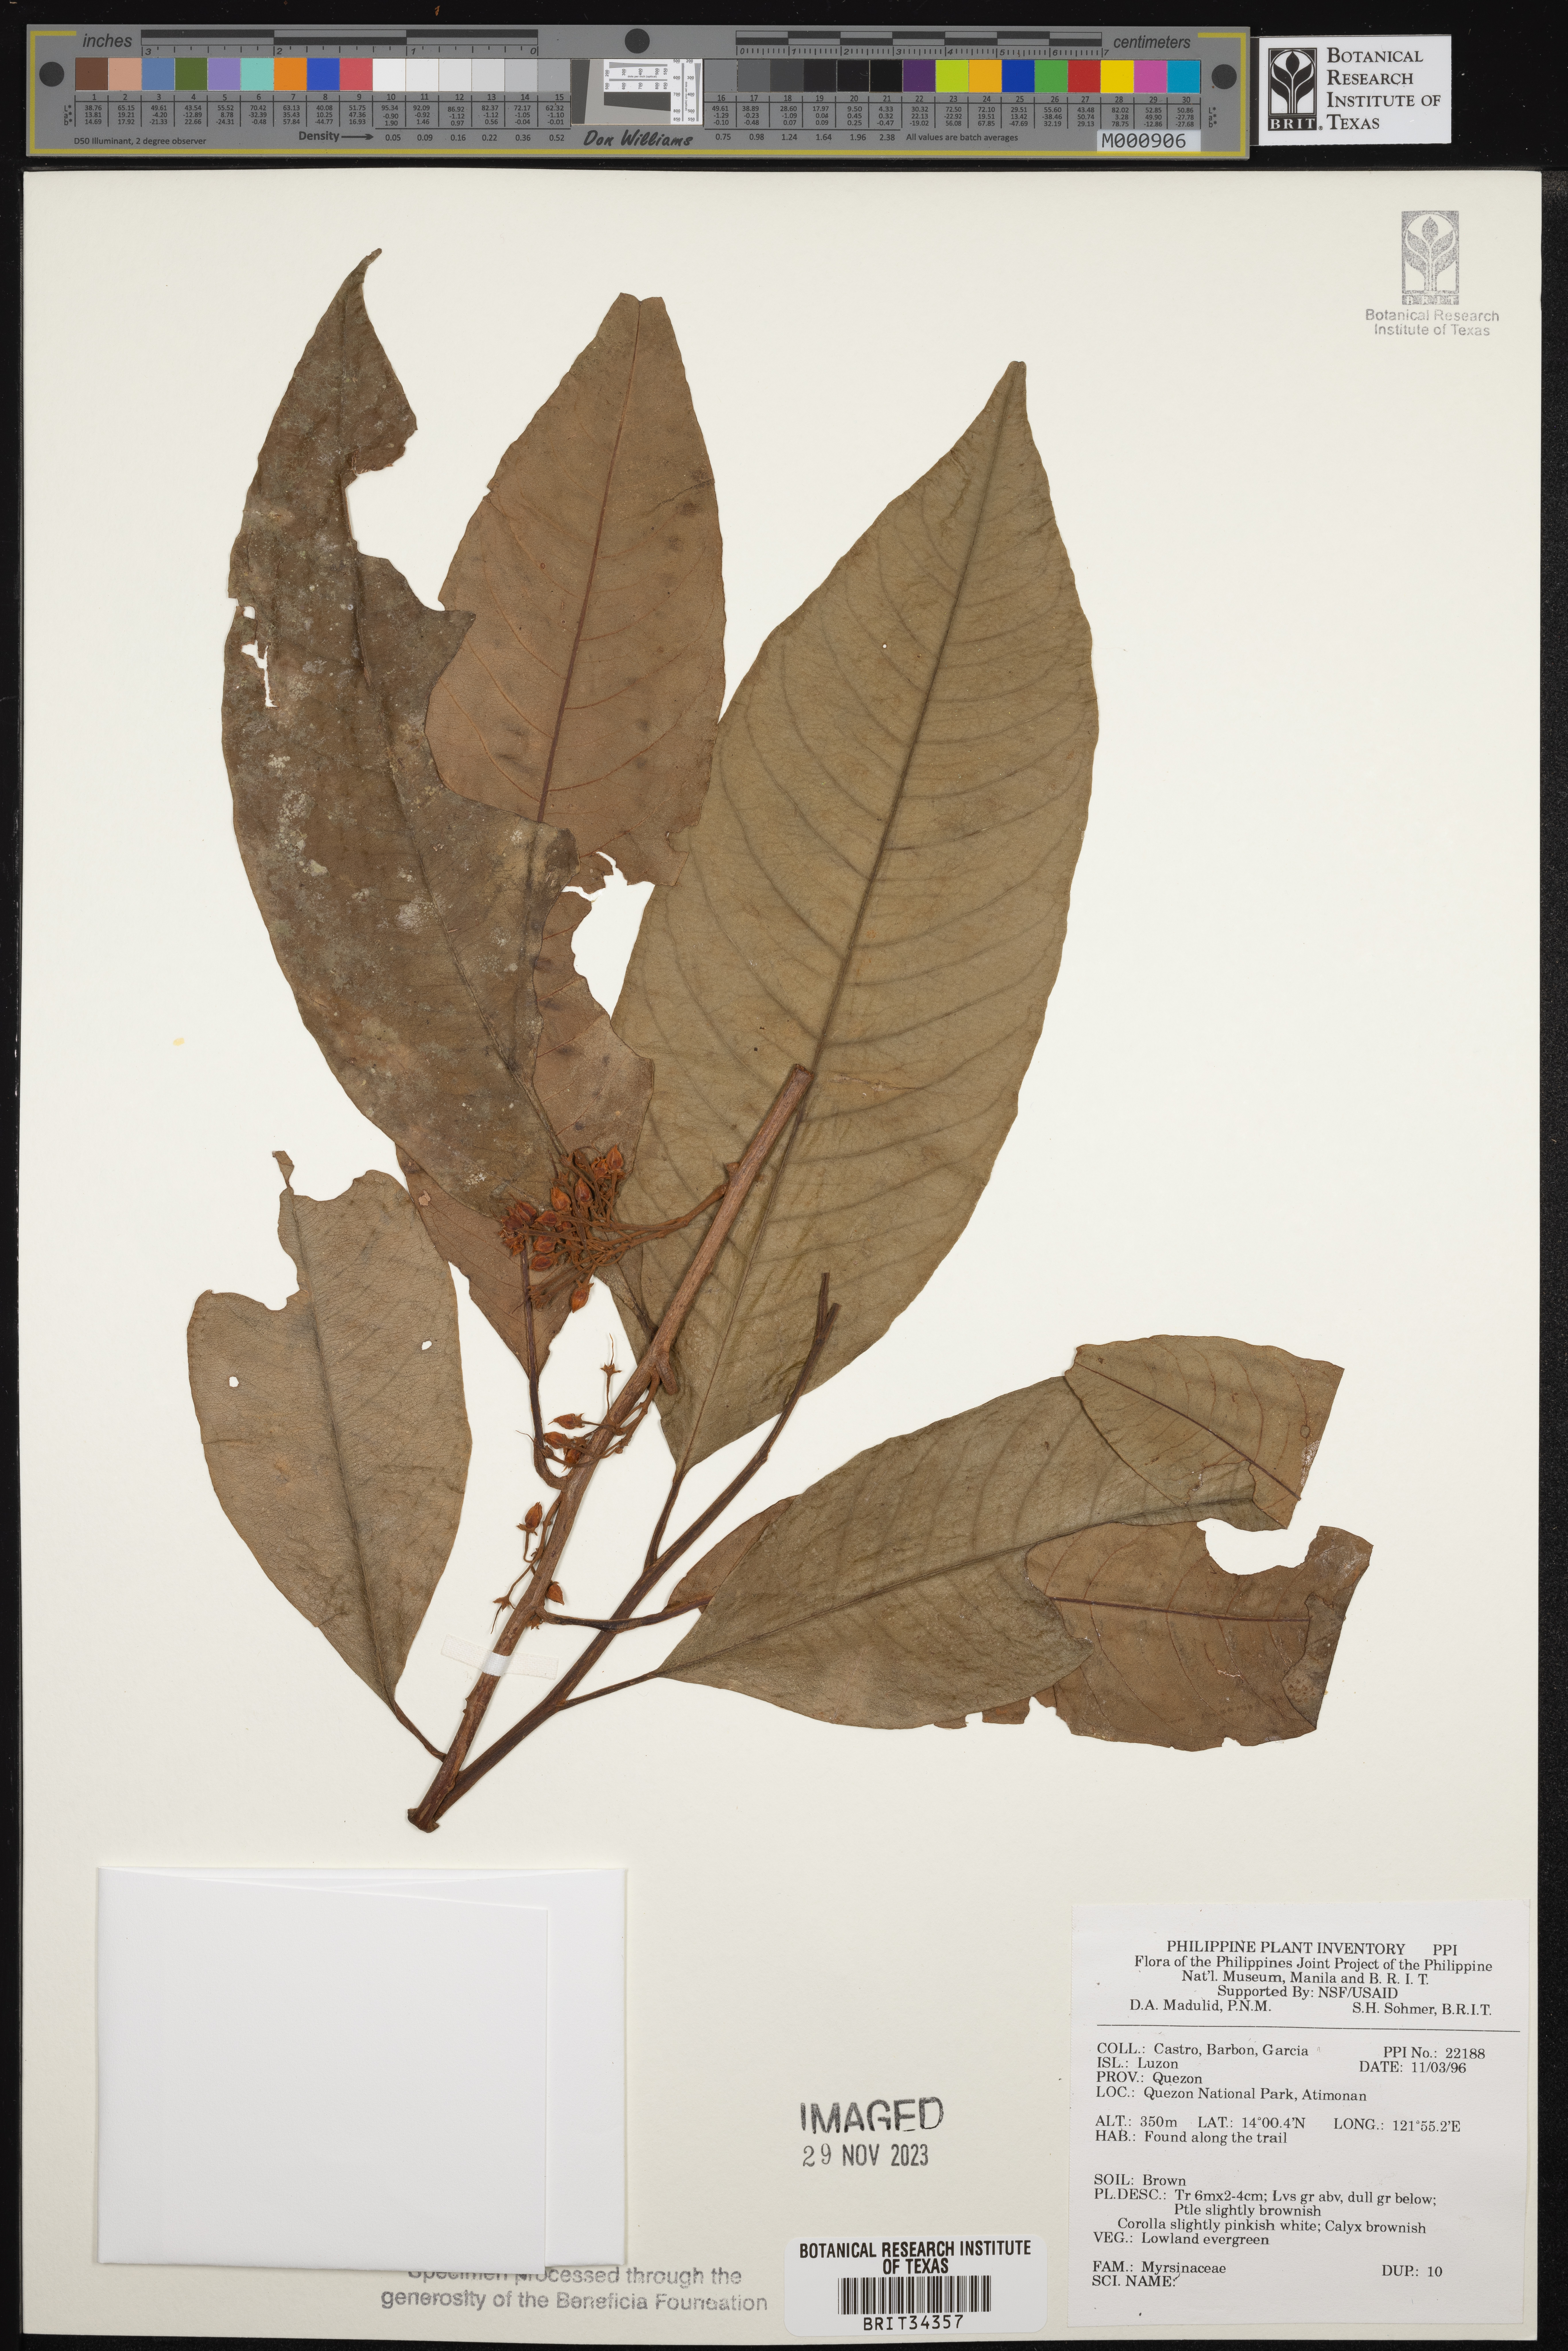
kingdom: Plantae
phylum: Tracheophyta
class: Magnoliopsida
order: Ericales
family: Primulaceae
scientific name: Primulaceae
